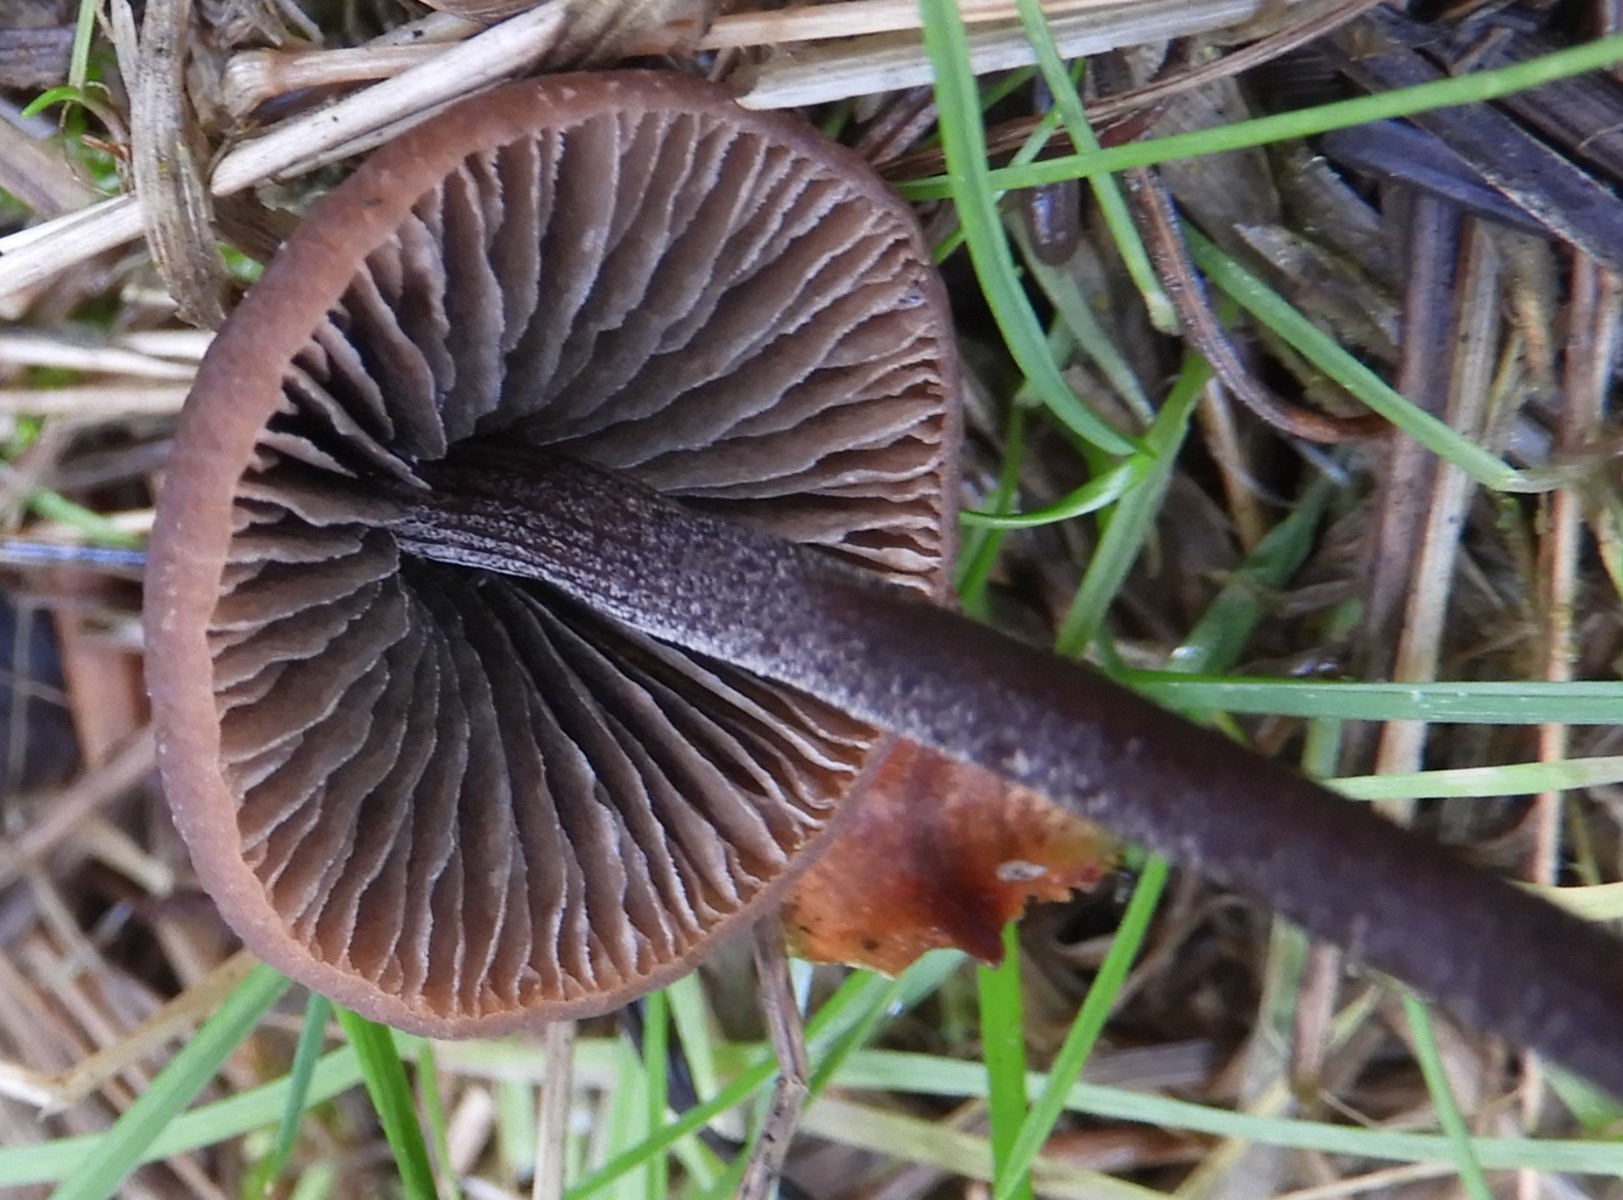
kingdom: Fungi
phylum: Basidiomycota
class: Agaricomycetes
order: Agaricales
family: Bolbitiaceae
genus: Panaeolus
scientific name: Panaeolus
